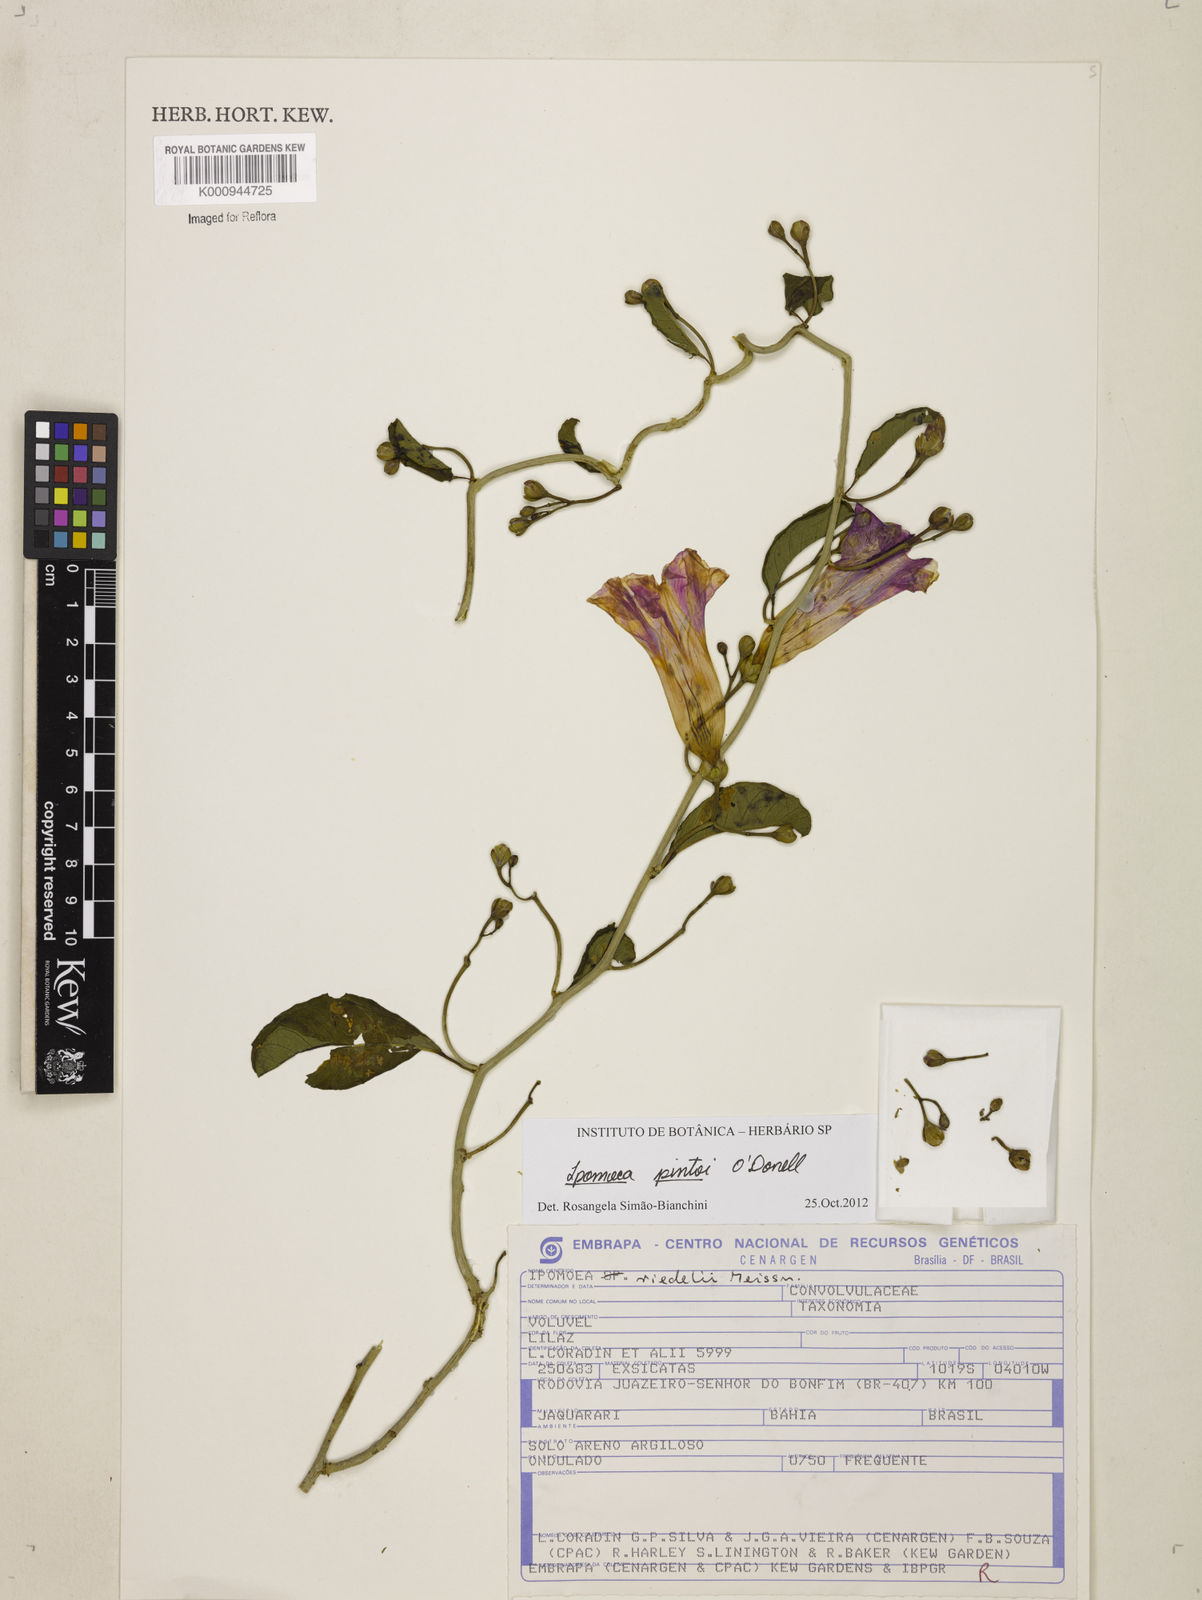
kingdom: Plantae
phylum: Tracheophyta
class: Magnoliopsida
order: Solanales
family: Convolvulaceae
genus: Ipomoea
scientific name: Ipomoea pintoi
